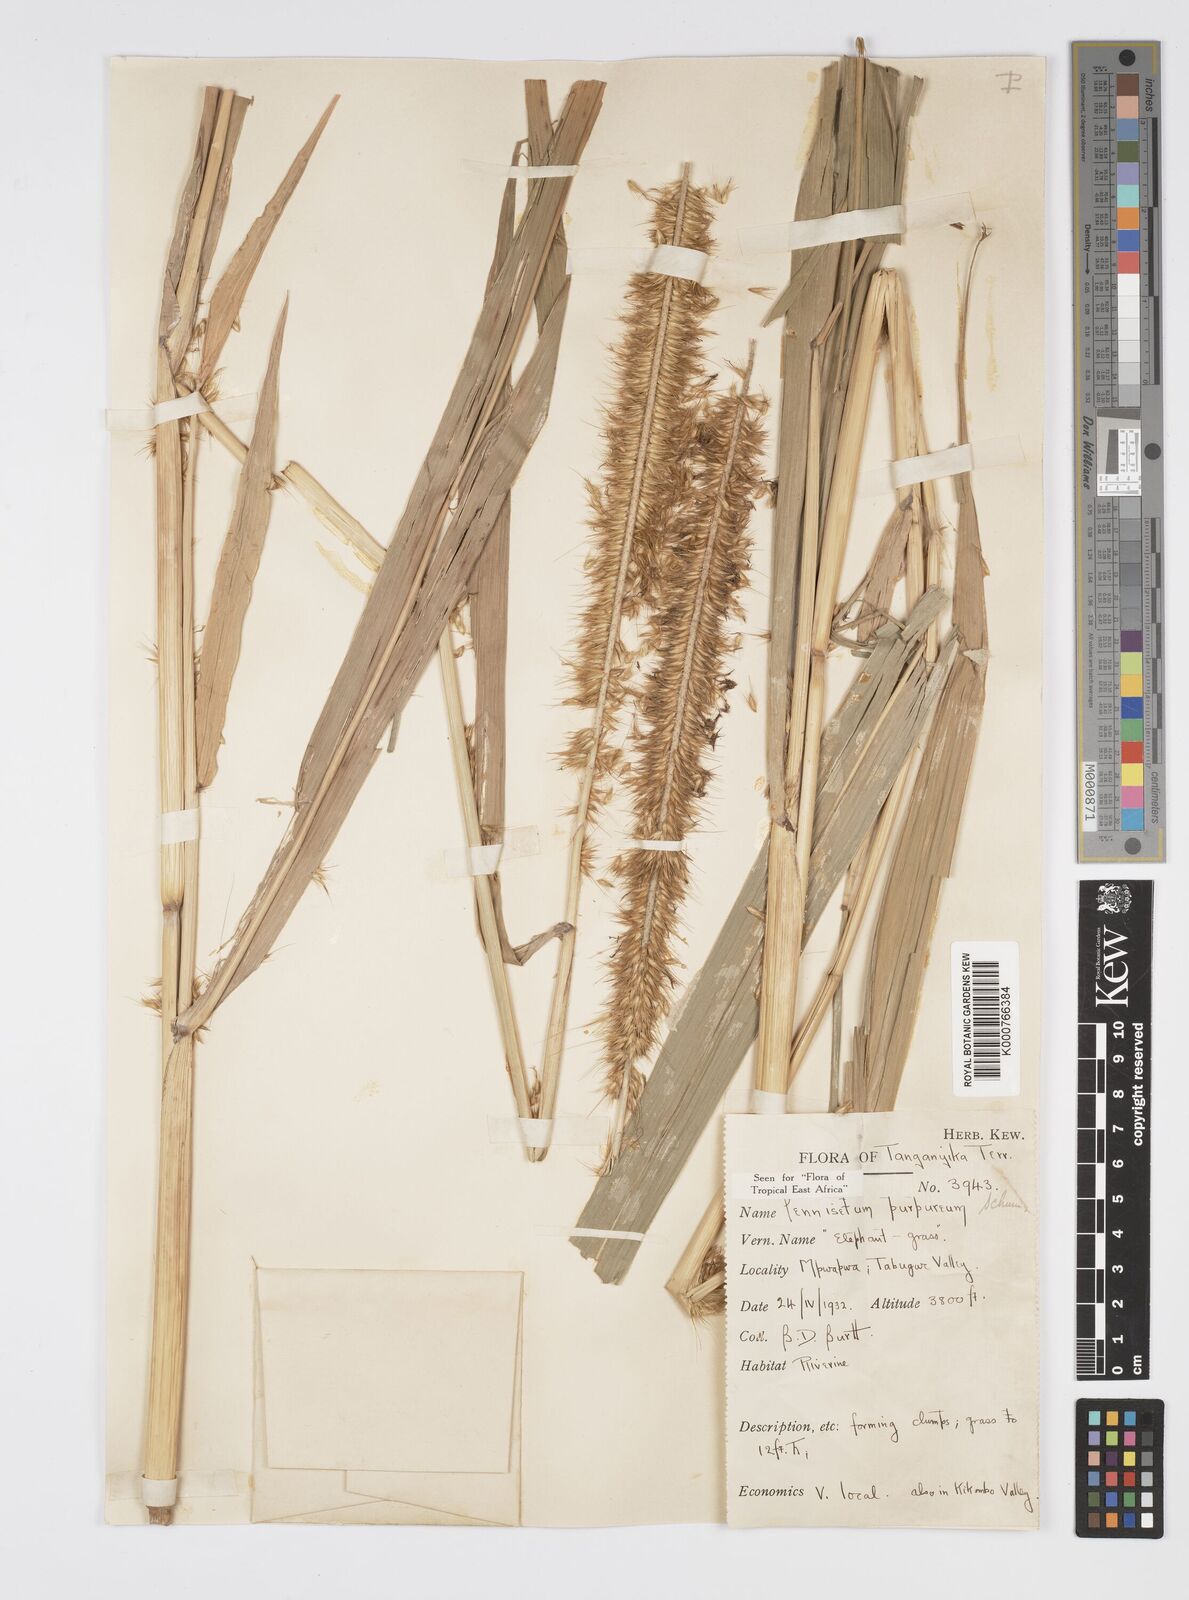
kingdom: Plantae
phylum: Tracheophyta
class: Liliopsida
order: Poales
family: Poaceae
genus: Cenchrus
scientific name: Cenchrus purpureus
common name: Elephant grass
